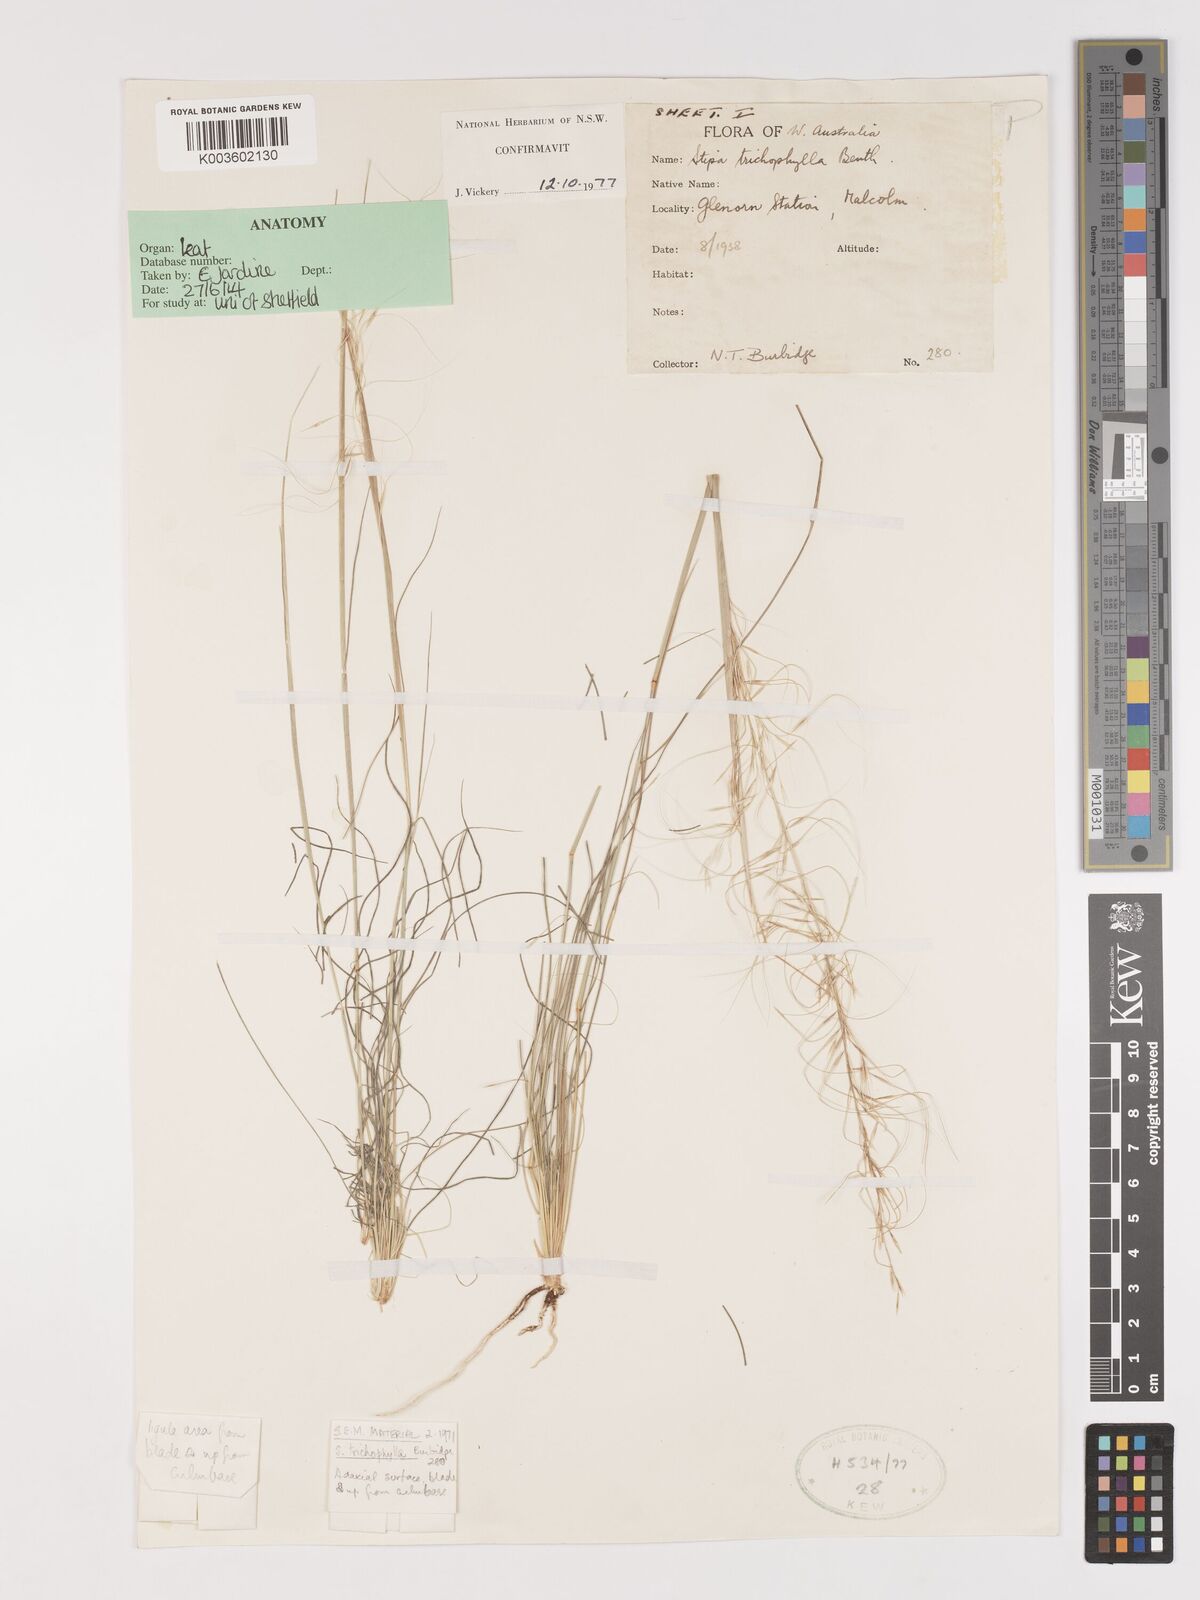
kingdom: Plantae
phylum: Tracheophyta
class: Liliopsida
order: Poales
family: Poaceae
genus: Austrostipa
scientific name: Austrostipa trichophylla
